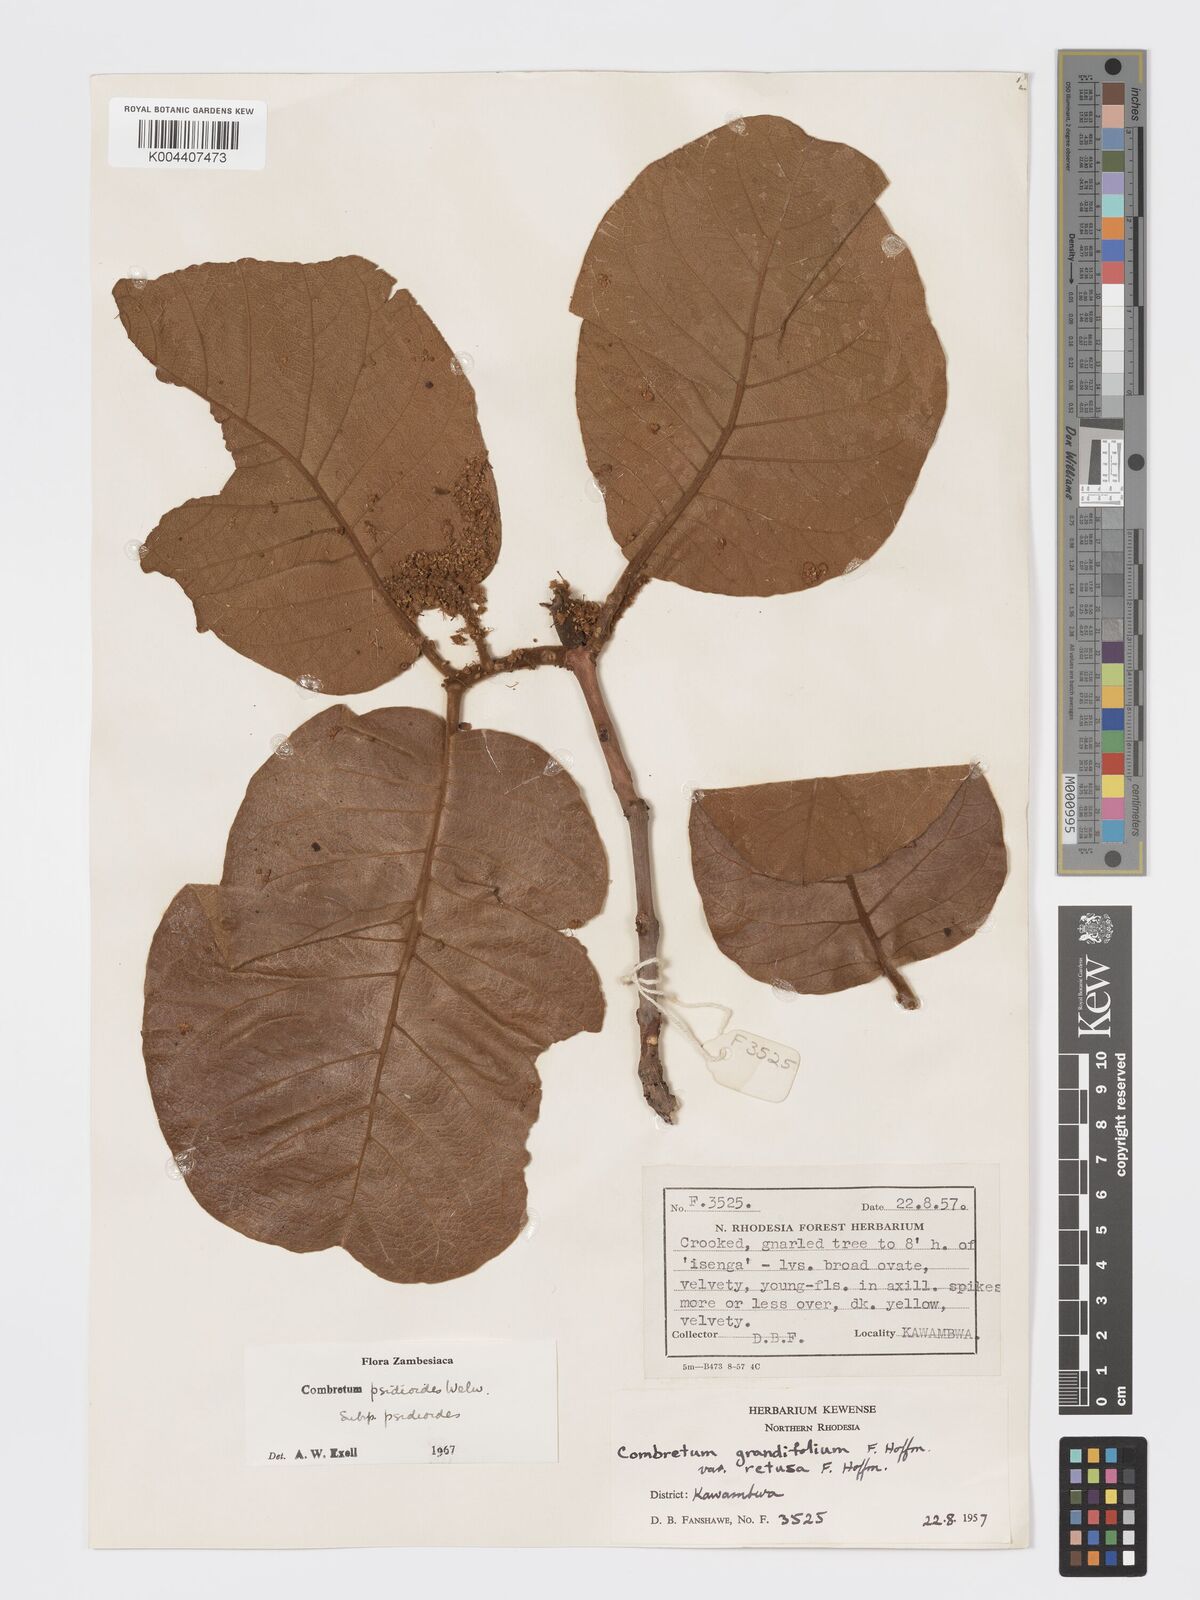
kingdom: Plantae
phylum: Tracheophyta
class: Magnoliopsida
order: Myrtales
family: Combretaceae
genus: Combretum
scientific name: Combretum psidioides
